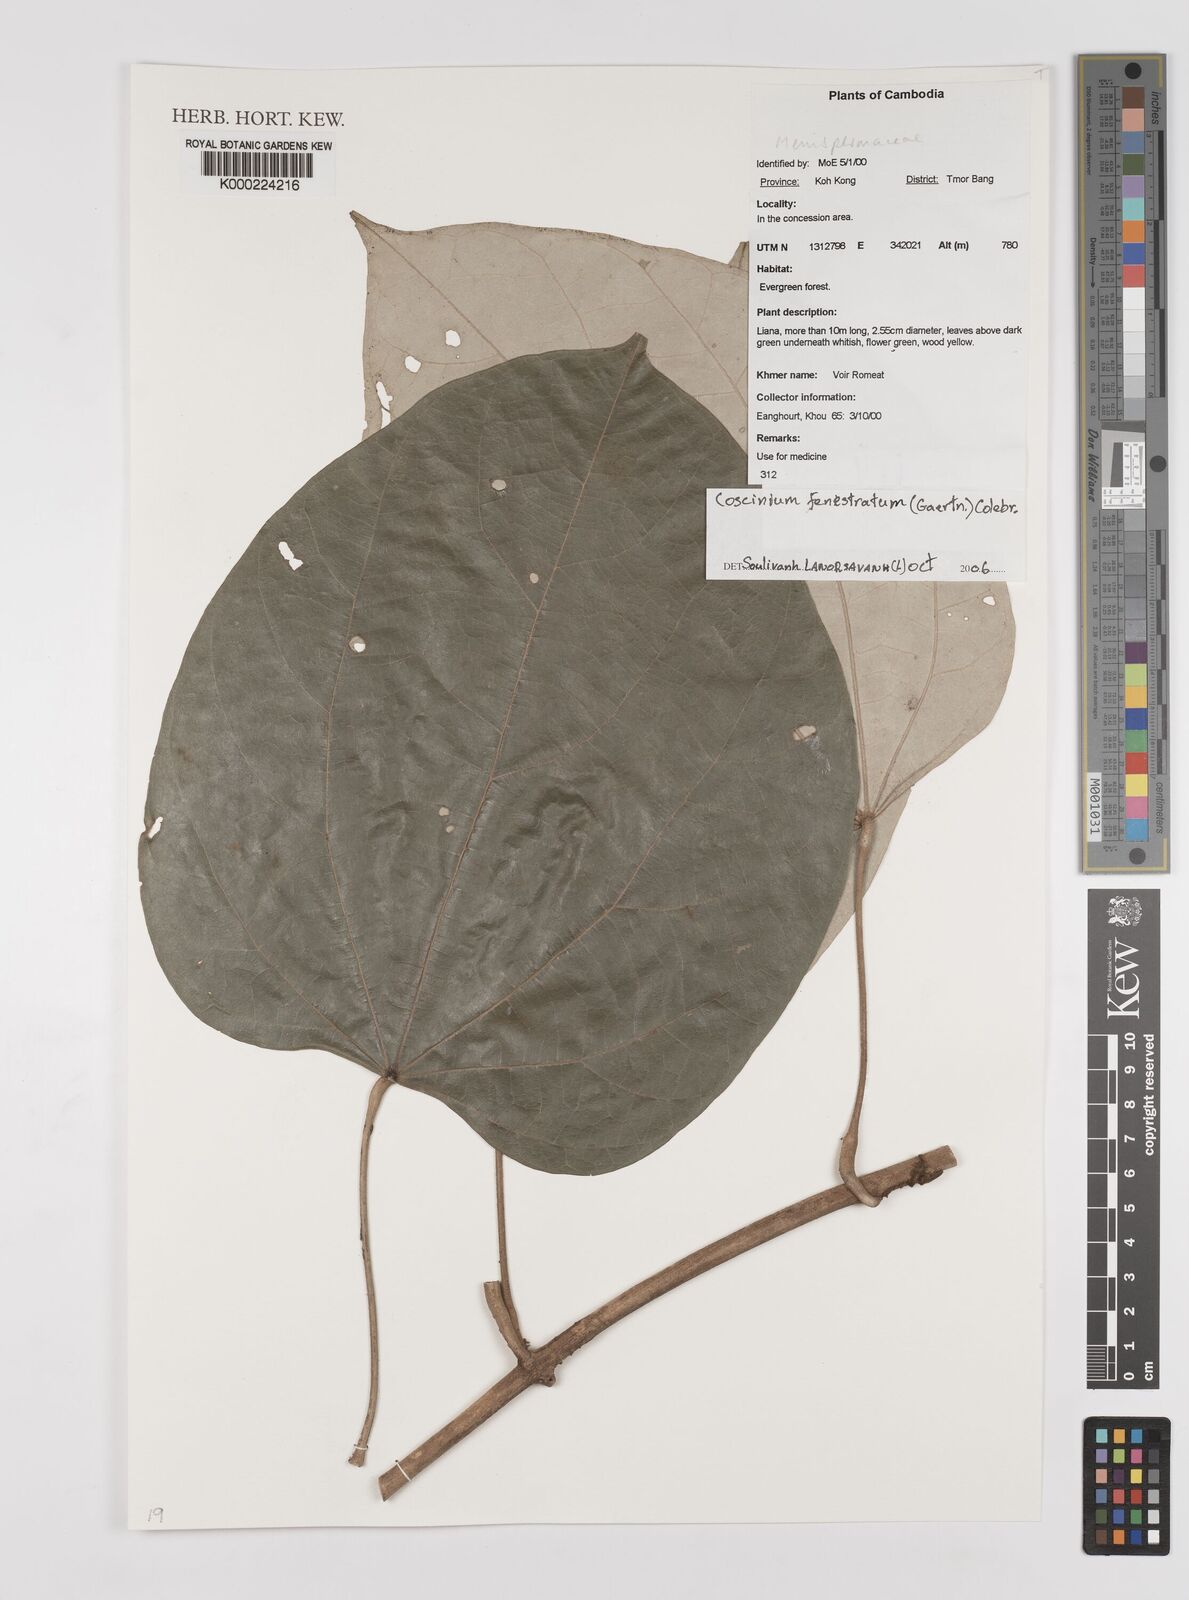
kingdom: Plantae
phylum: Tracheophyta
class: Magnoliopsida
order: Ranunculales
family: Menispermaceae
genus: Coscinium
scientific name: Coscinium fenestratum
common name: False calumba
